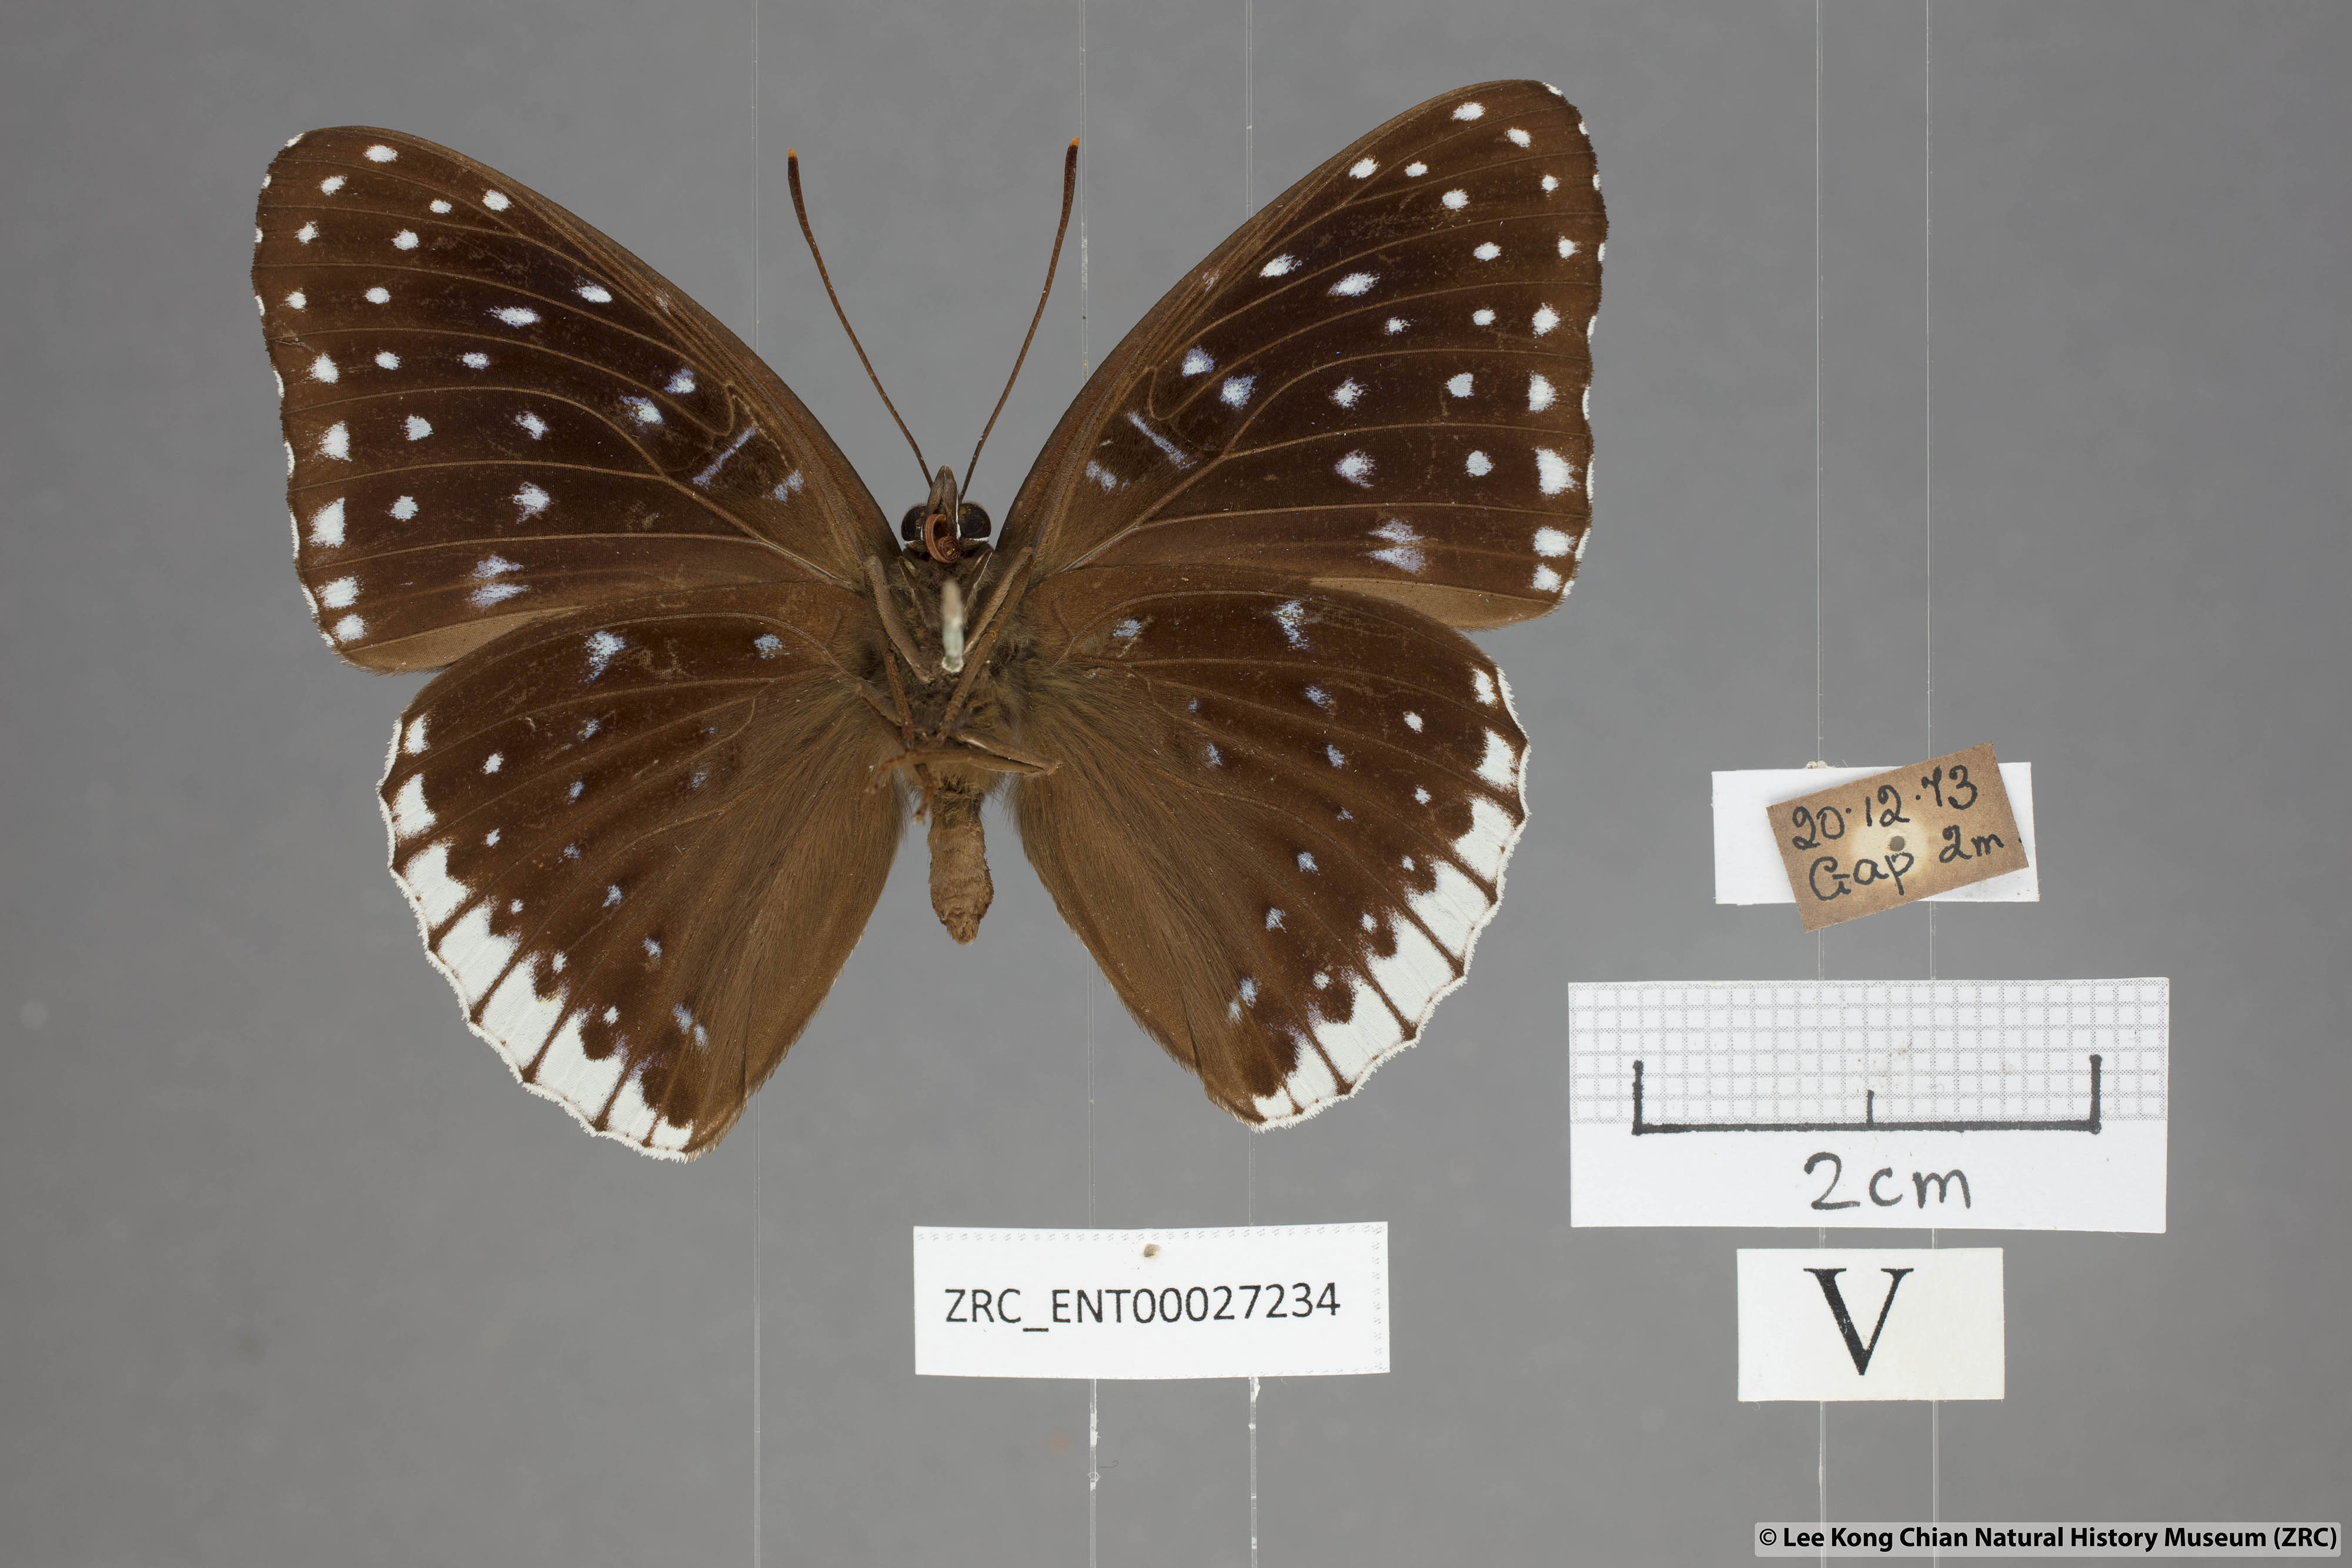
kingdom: Animalia
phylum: Arthropoda
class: Insecta
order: Lepidoptera
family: Nymphalidae
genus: Stibochiona
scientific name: Stibochiona nicea
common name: Popinjay
